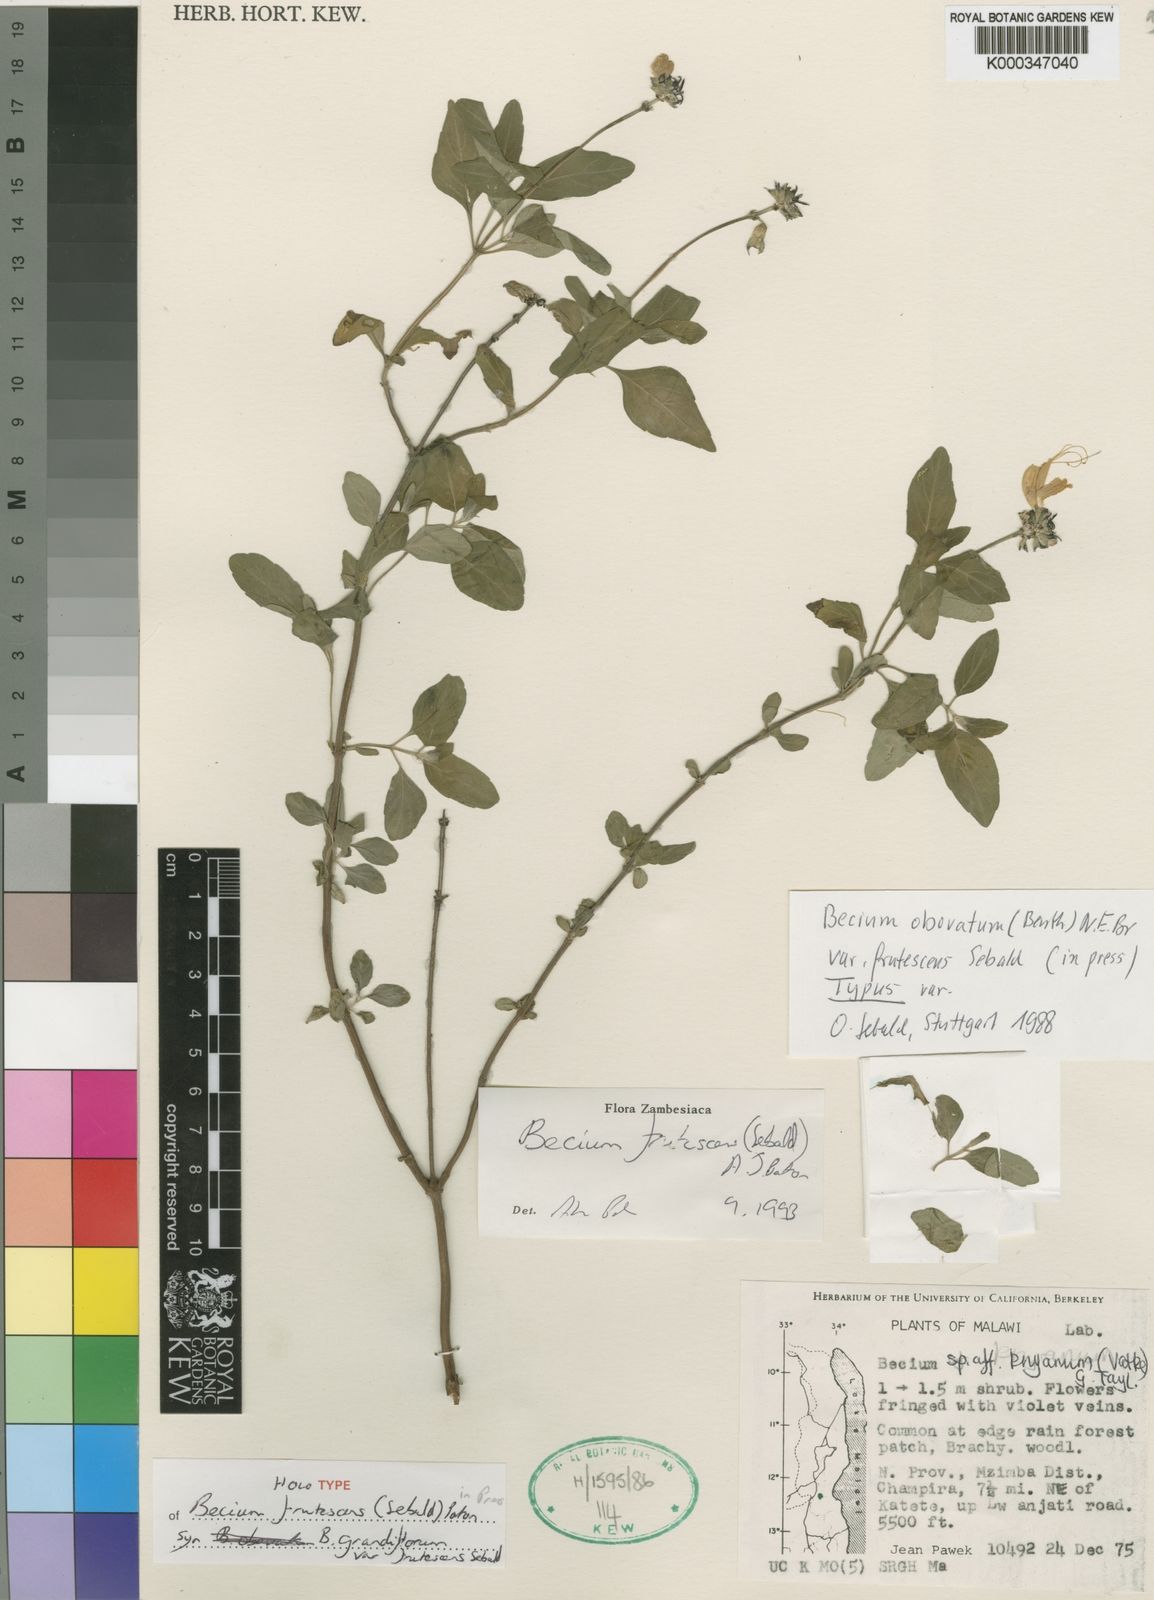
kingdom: Plantae
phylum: Tracheophyta
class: Magnoliopsida
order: Lamiales
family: Lamiaceae
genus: Ocimum
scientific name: Ocimum
